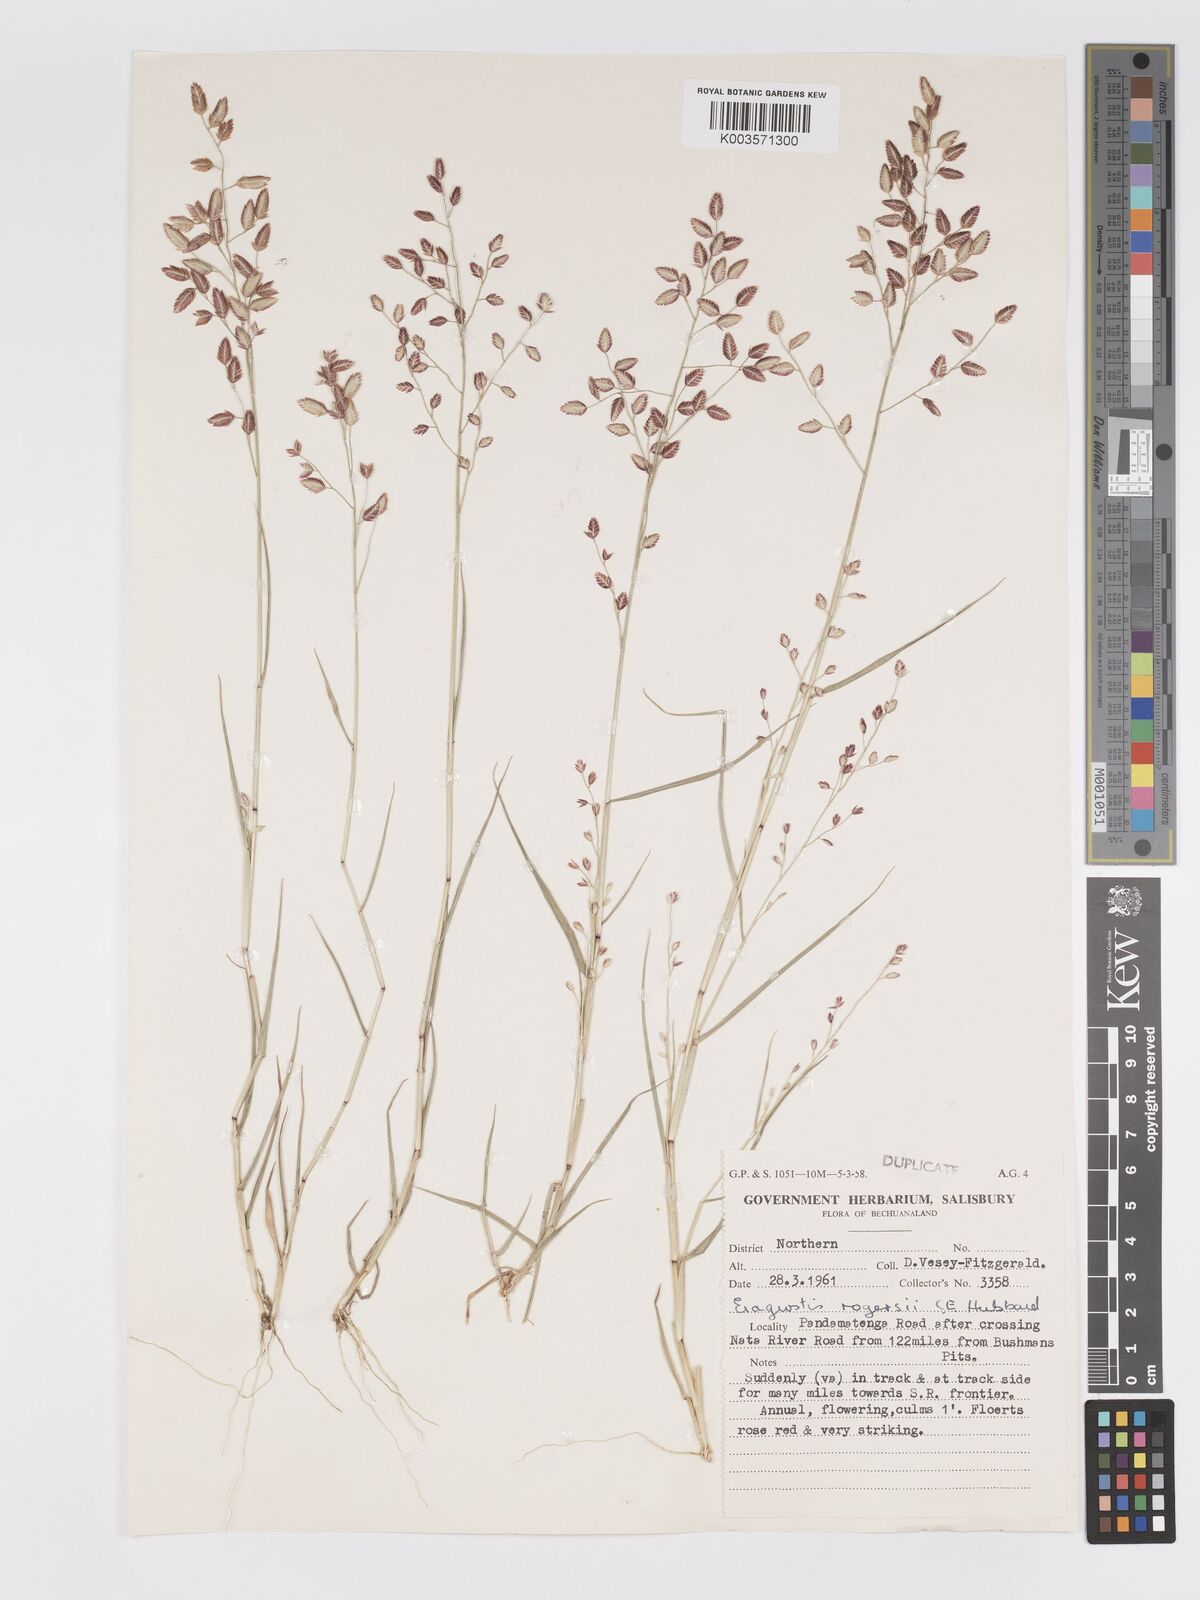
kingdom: Plantae
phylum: Tracheophyta
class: Liliopsida
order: Poales
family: Poaceae
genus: Eragrostis
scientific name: Eragrostis rogersii
